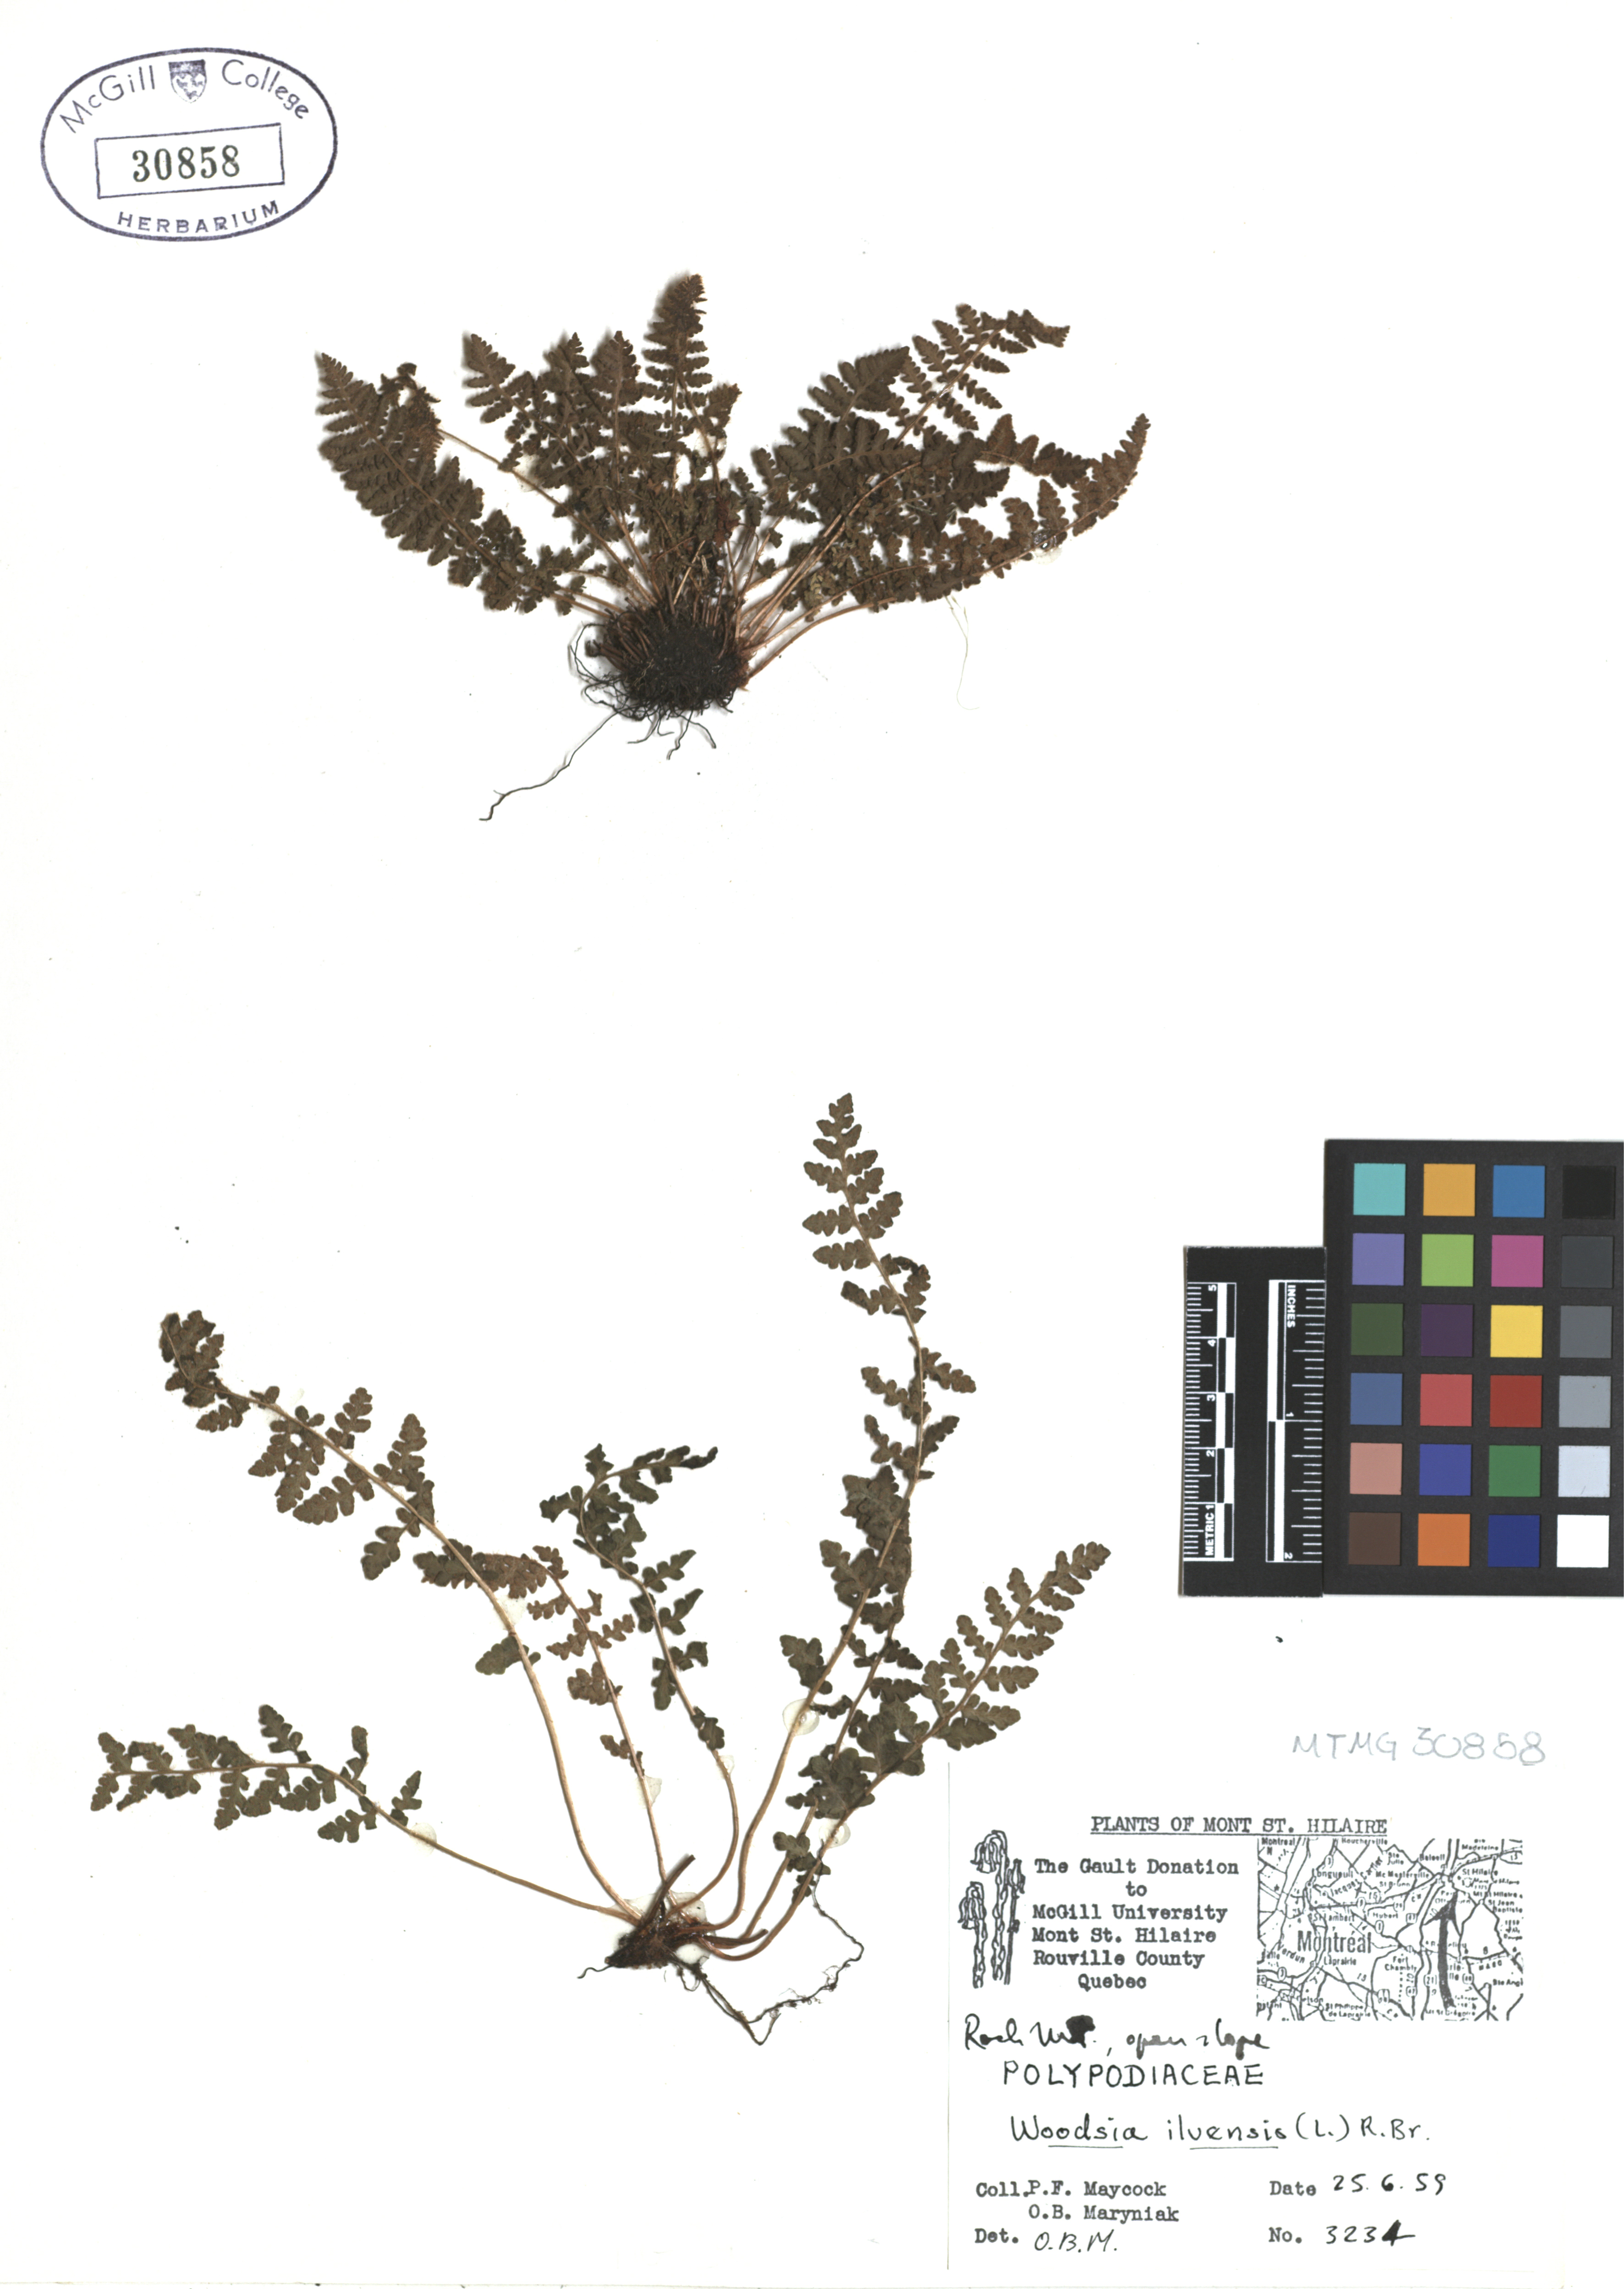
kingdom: Plantae
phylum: Tracheophyta
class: Polypodiopsida
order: Polypodiales
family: Woodsiaceae
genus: Woodsia
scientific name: Woodsia ilvensis
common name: Fragrant woodsia
